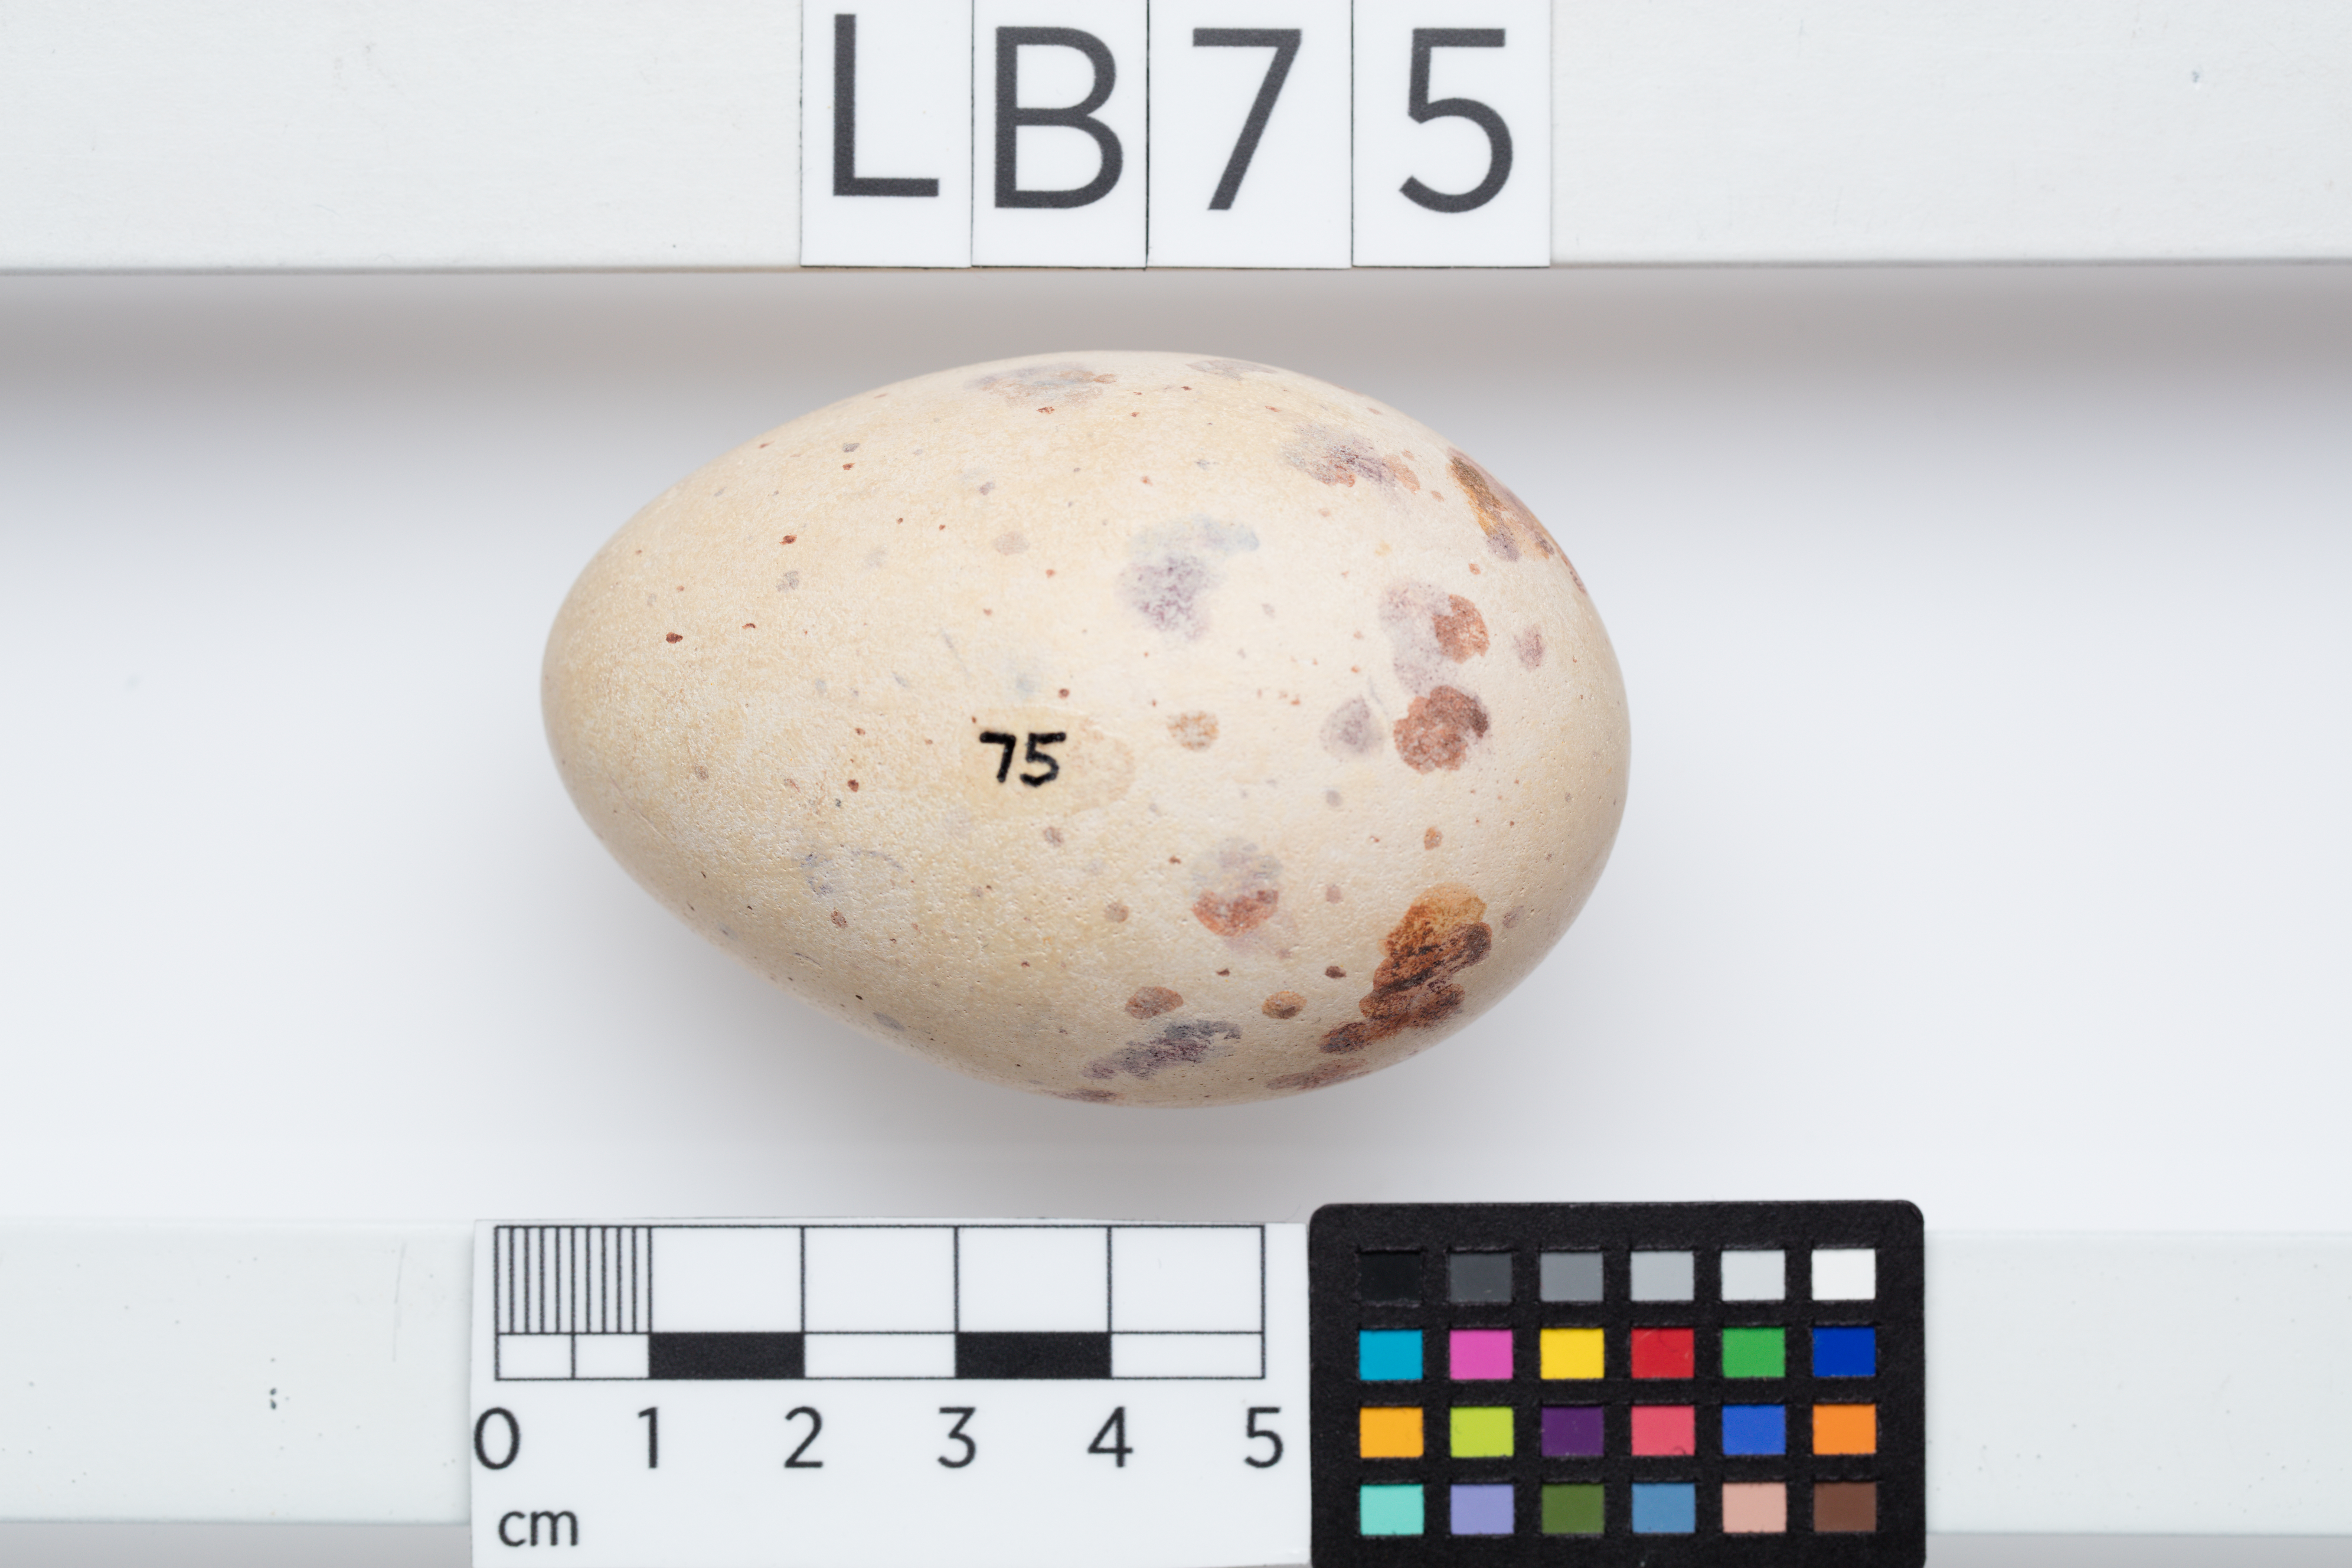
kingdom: Animalia
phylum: Chordata
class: Aves
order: Gruiformes
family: Rallidae
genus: Porphyrio
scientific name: Porphyrio hochstetteri
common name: South island takahe
